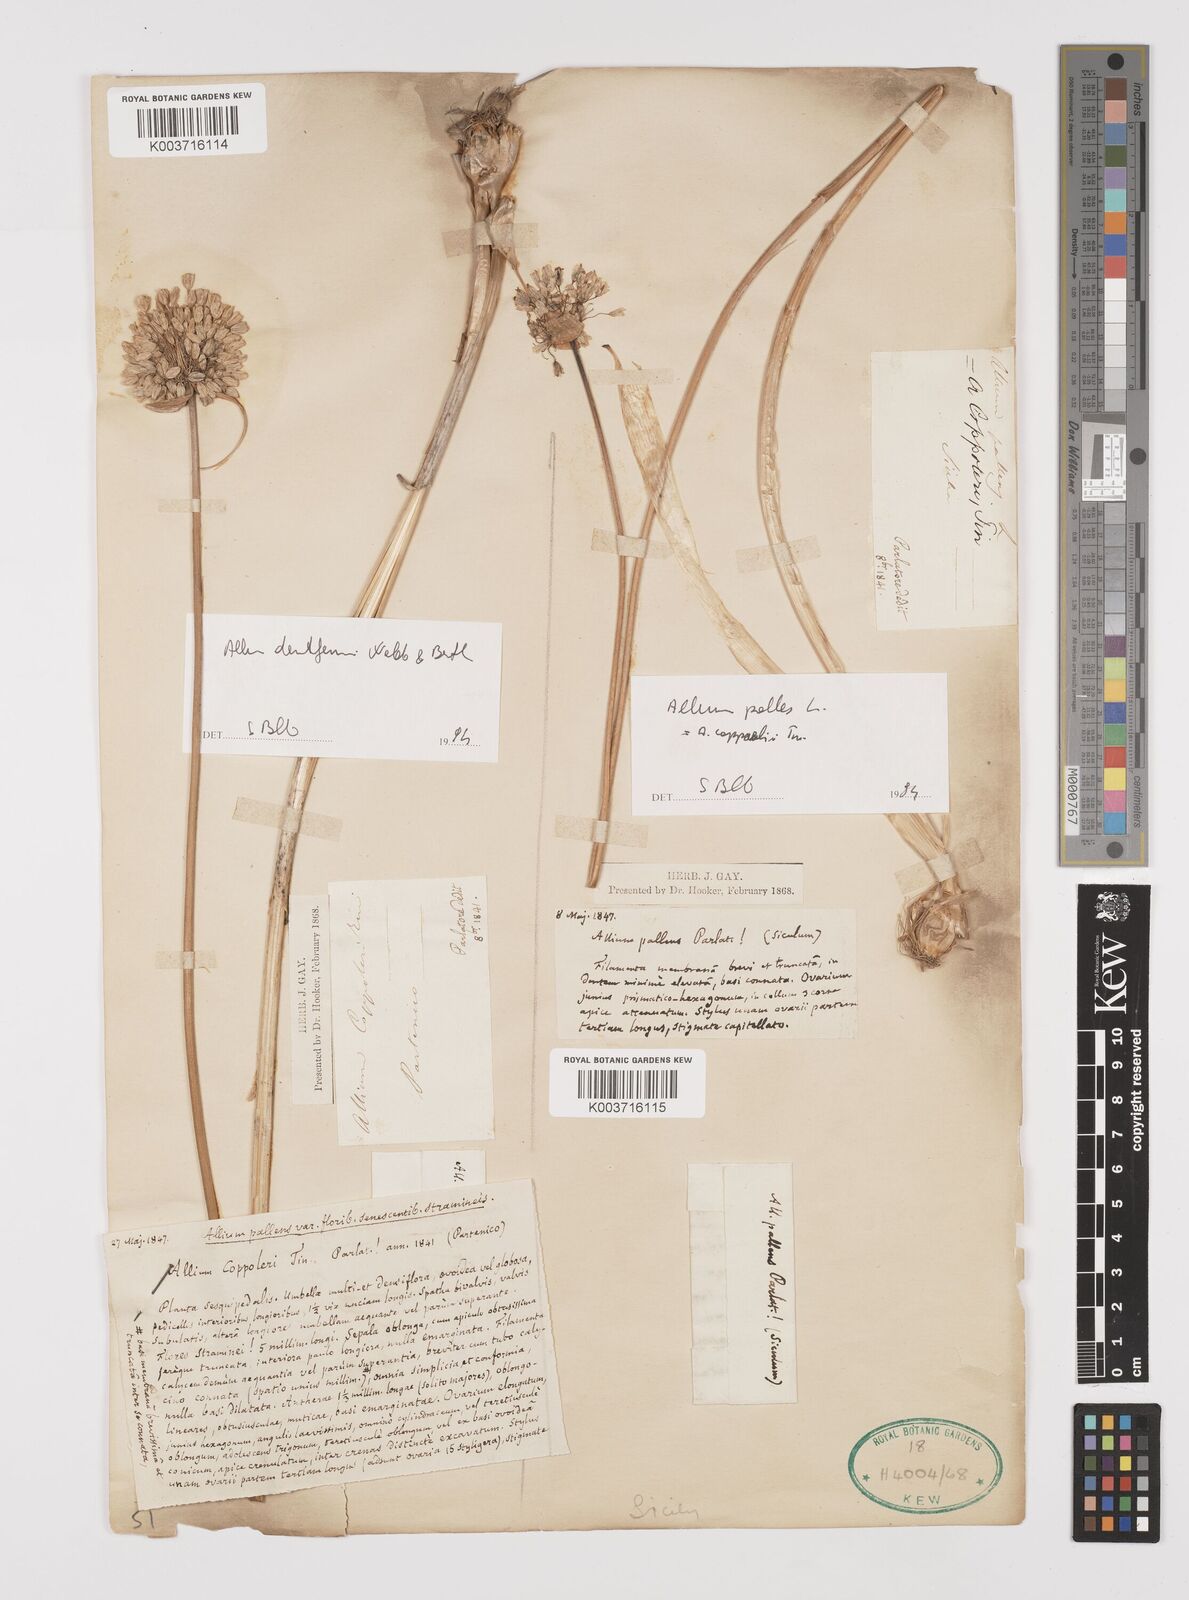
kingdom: Plantae
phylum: Tracheophyta
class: Liliopsida
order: Asparagales
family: Amaryllidaceae
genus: Allium
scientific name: Allium flavum
